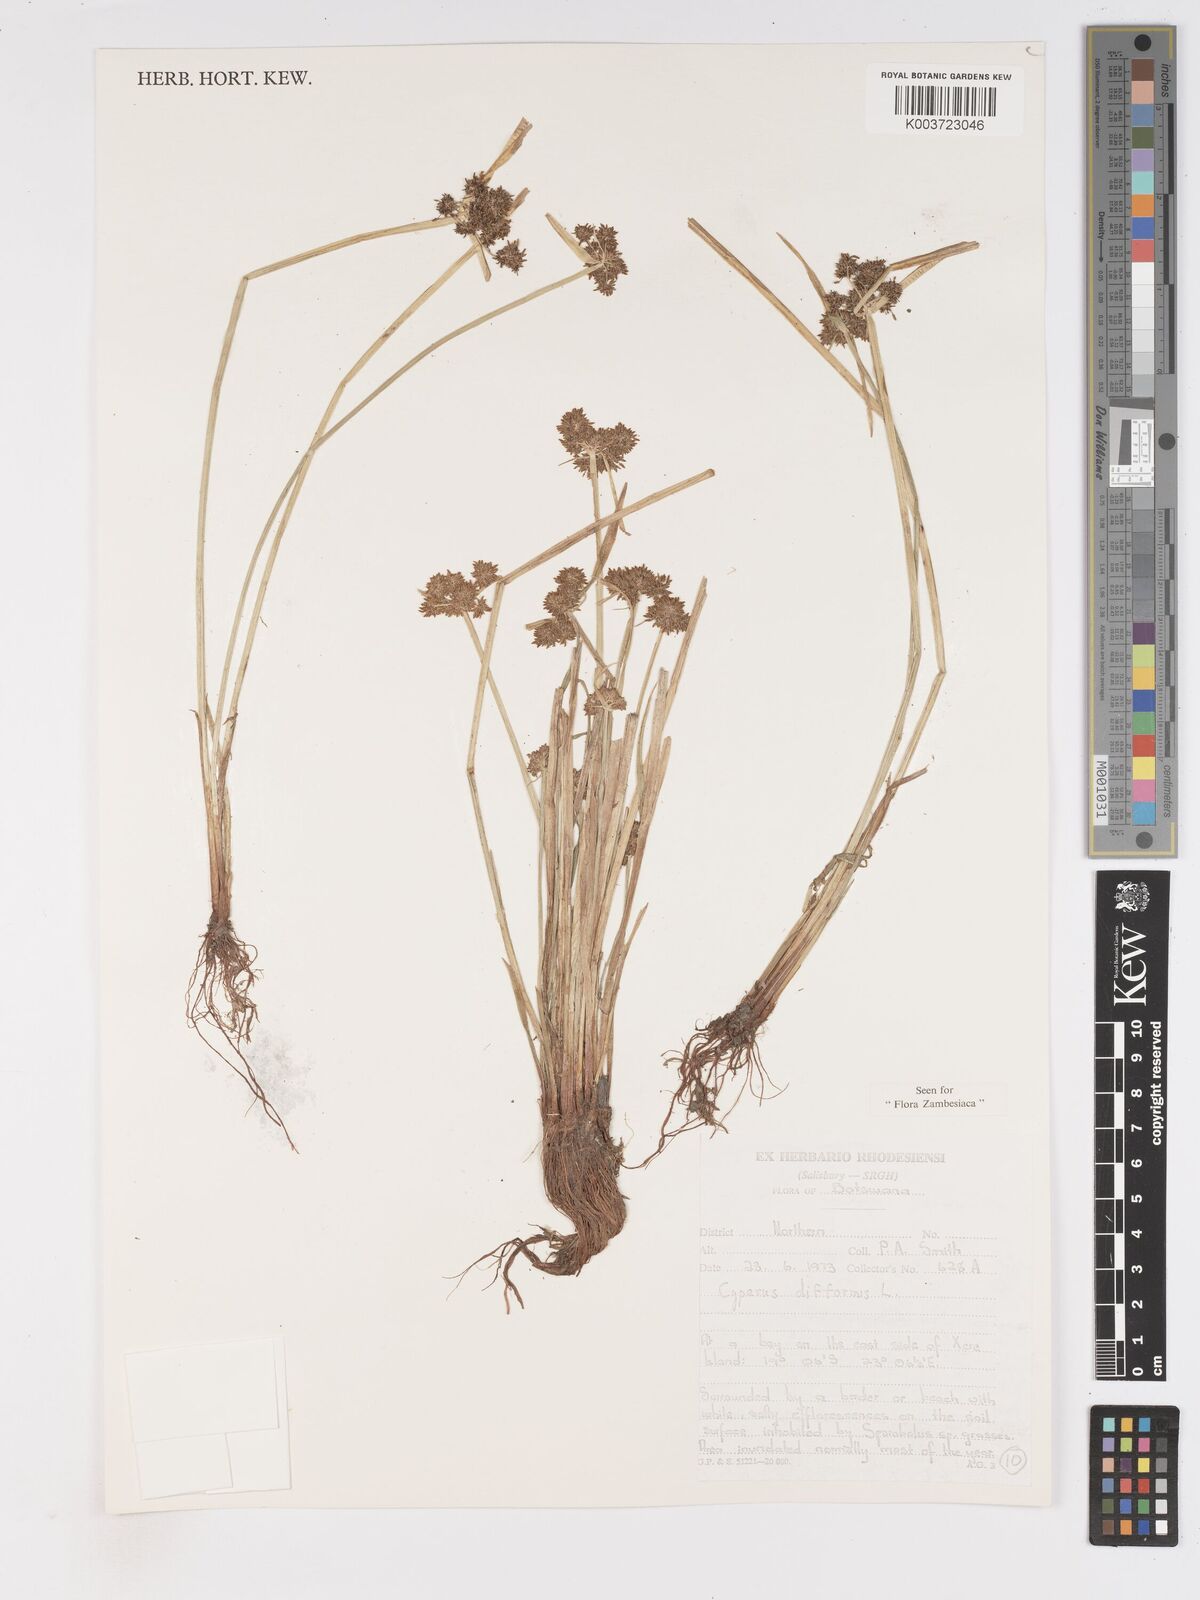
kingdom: Plantae
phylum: Tracheophyta
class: Liliopsida
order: Poales
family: Cyperaceae
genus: Cyperus
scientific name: Cyperus difformis
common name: Variable flatsedge
